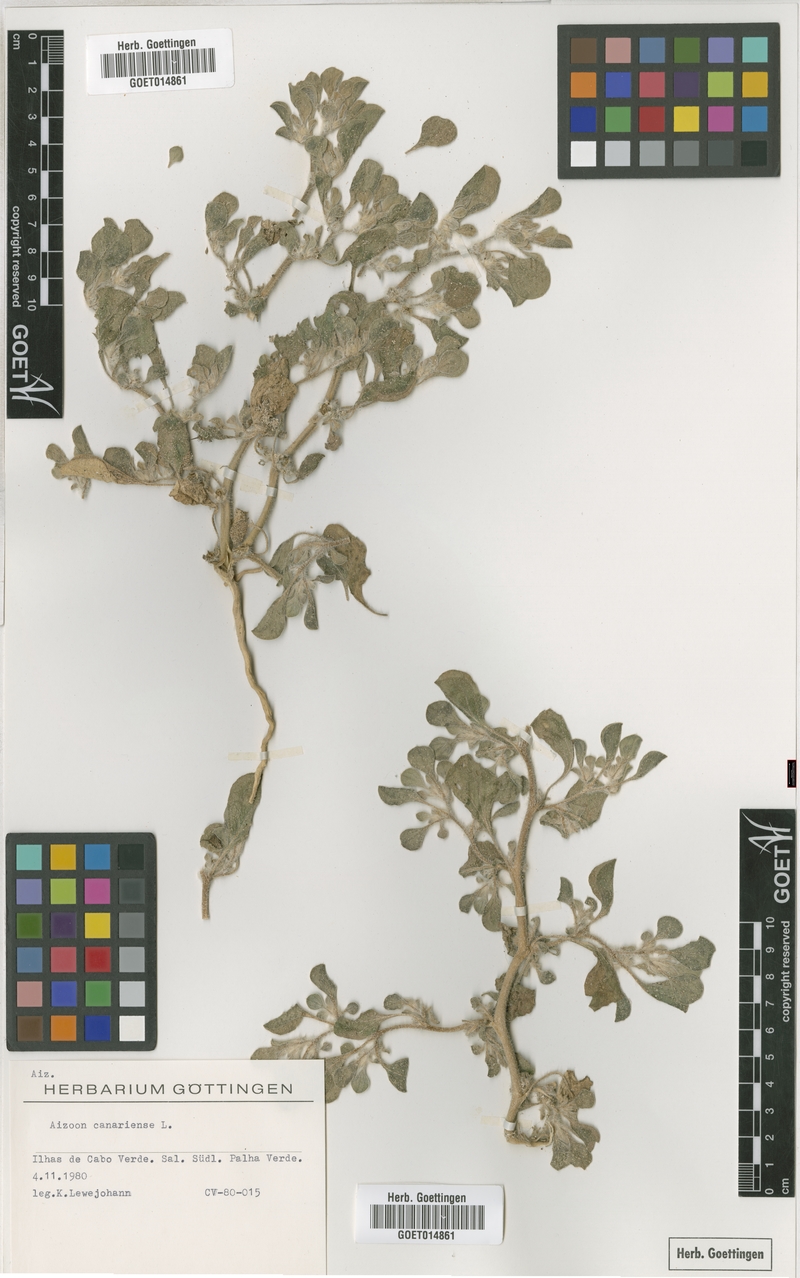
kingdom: Plantae
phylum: Tracheophyta
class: Magnoliopsida
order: Caryophyllales
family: Aizoaceae
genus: Aizoon
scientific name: Aizoon canariense
